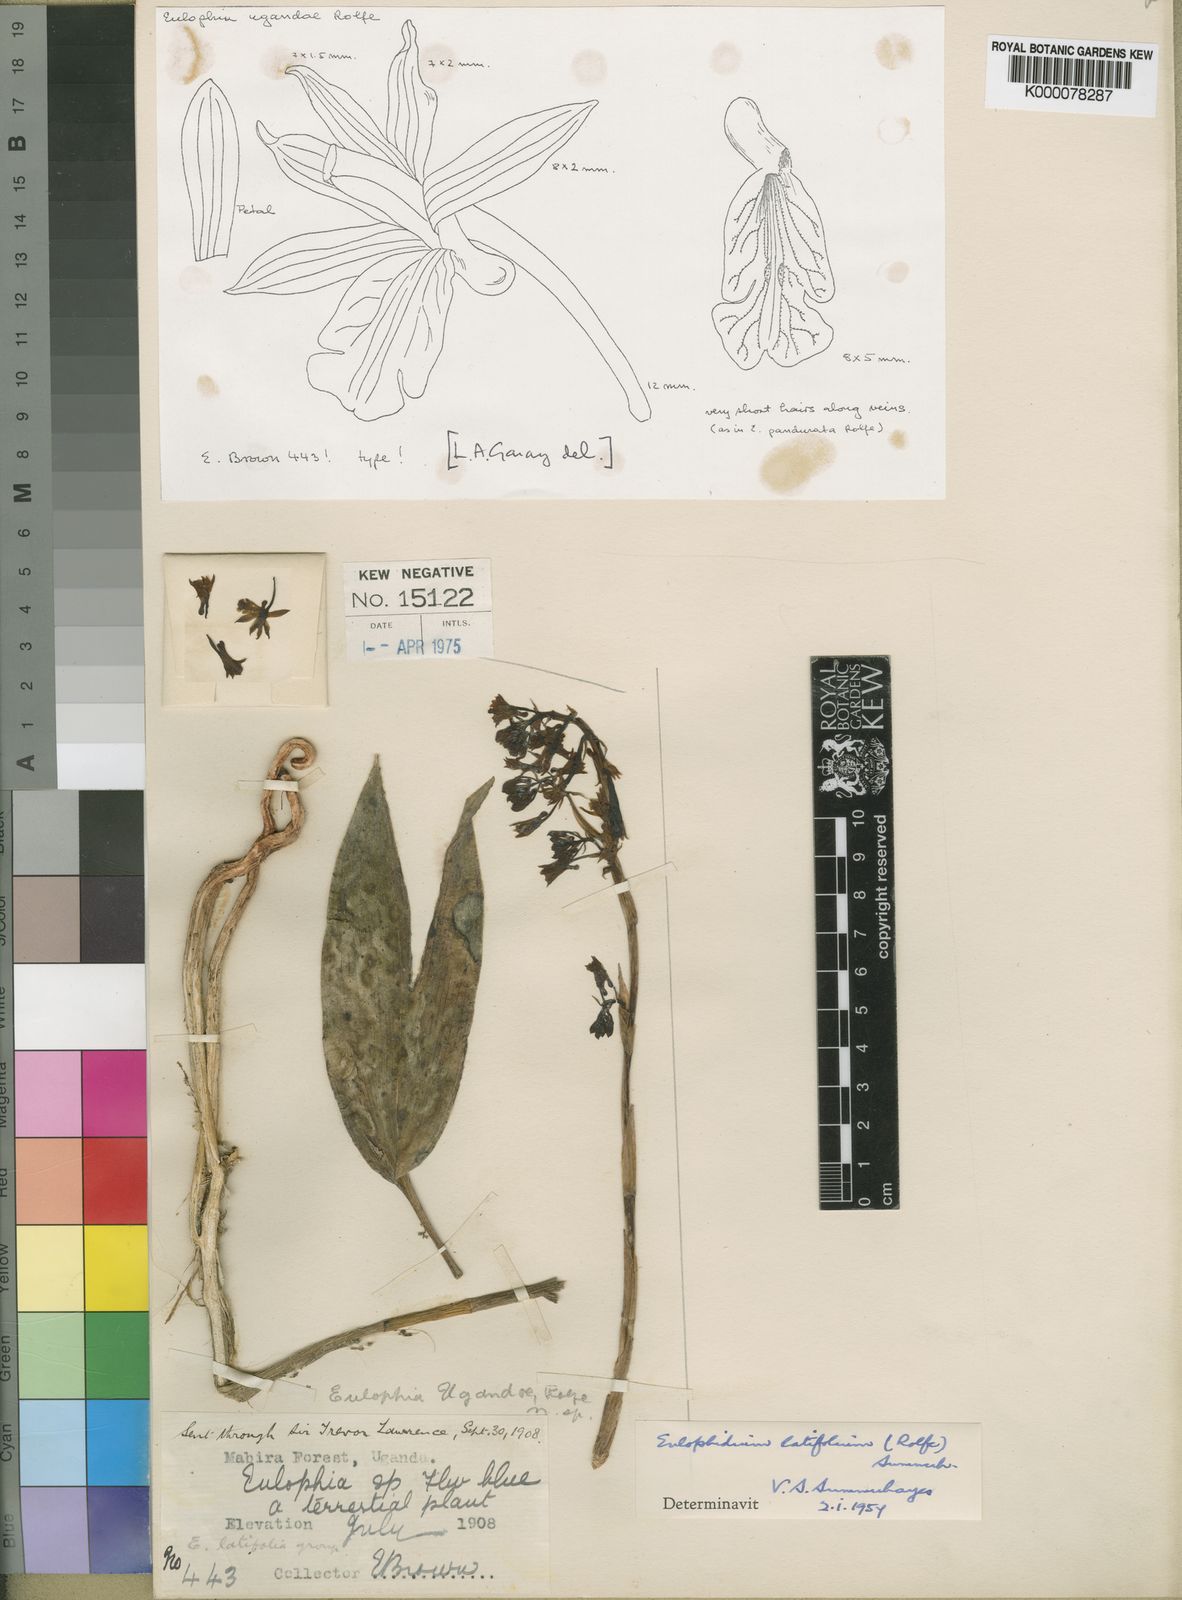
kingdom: Plantae
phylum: Tracheophyta
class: Liliopsida
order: Asparagales
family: Orchidaceae
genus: Eulophia
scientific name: Eulophia ugandae
